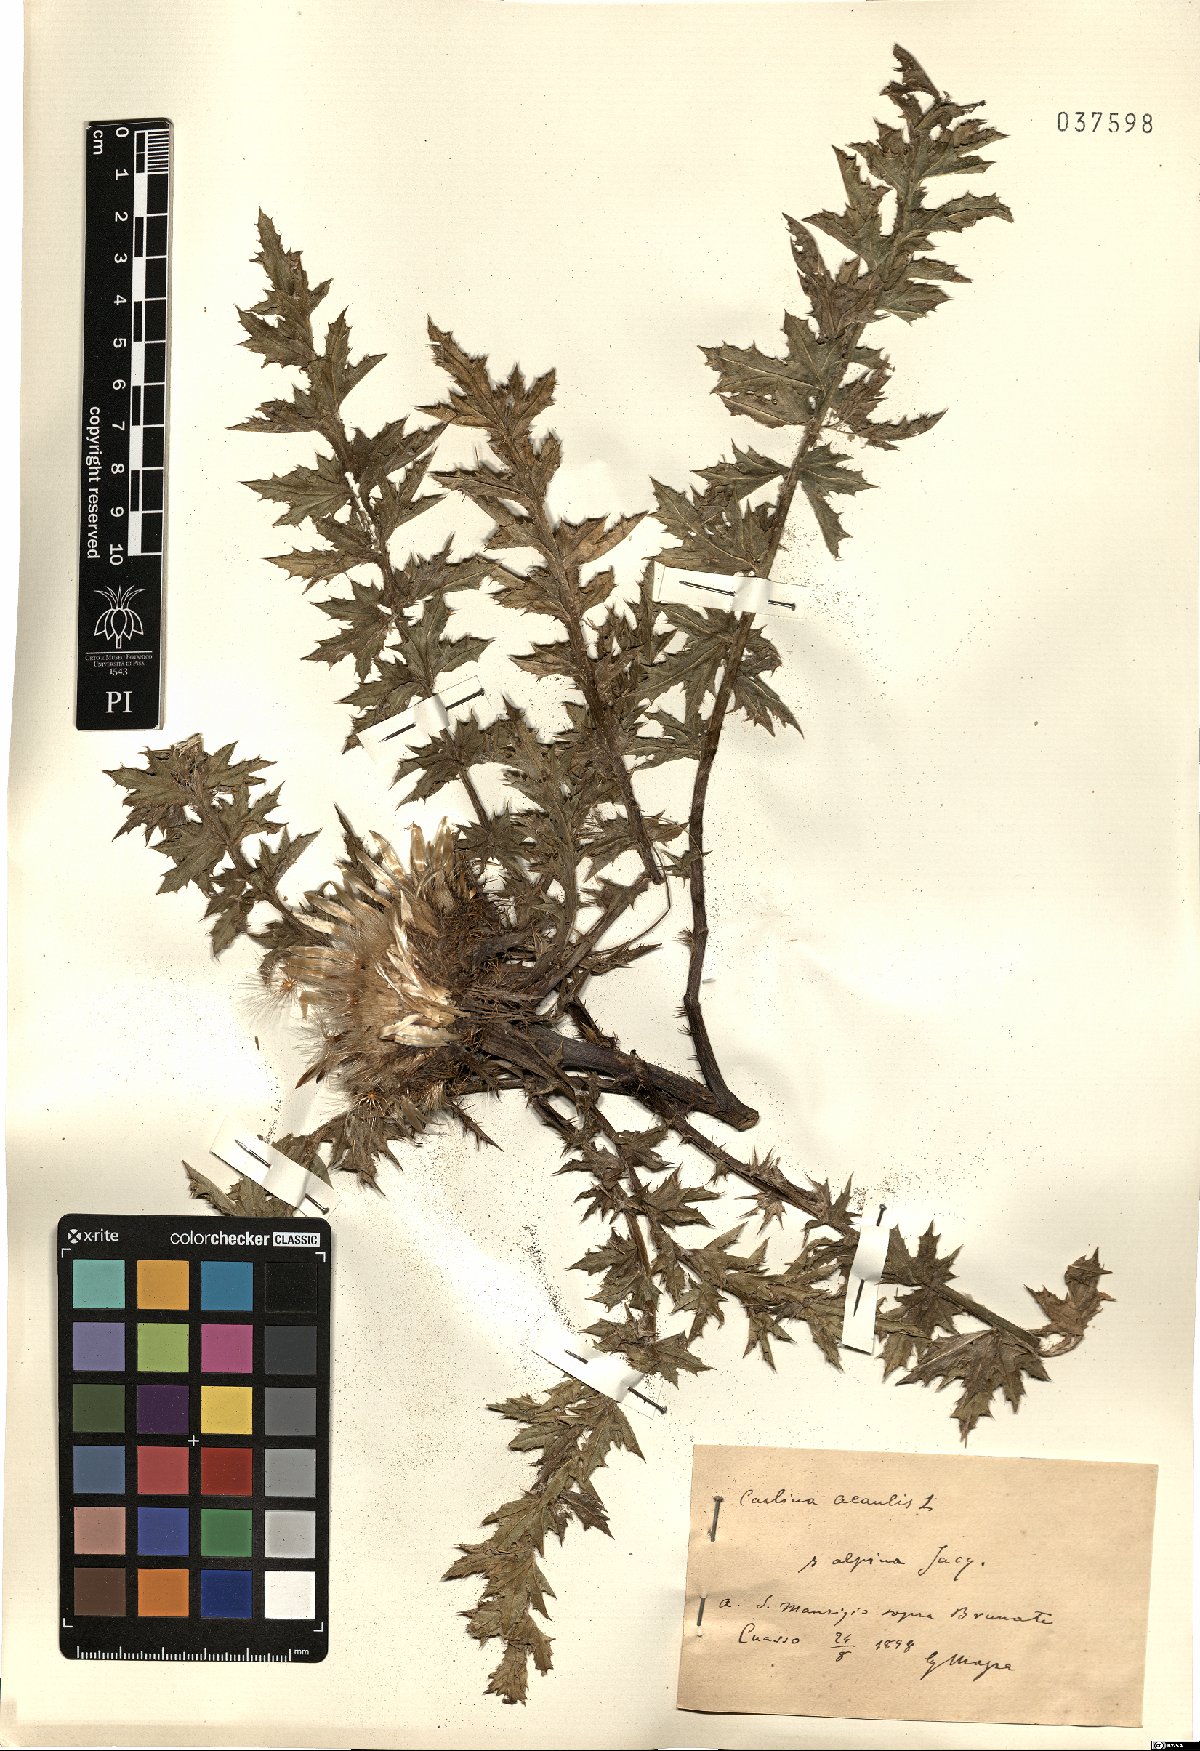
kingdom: Plantae
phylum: Tracheophyta
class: Magnoliopsida
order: Asterales
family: Asteraceae
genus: Carlina
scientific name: Carlina acaulis
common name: Stemless carline thistle
